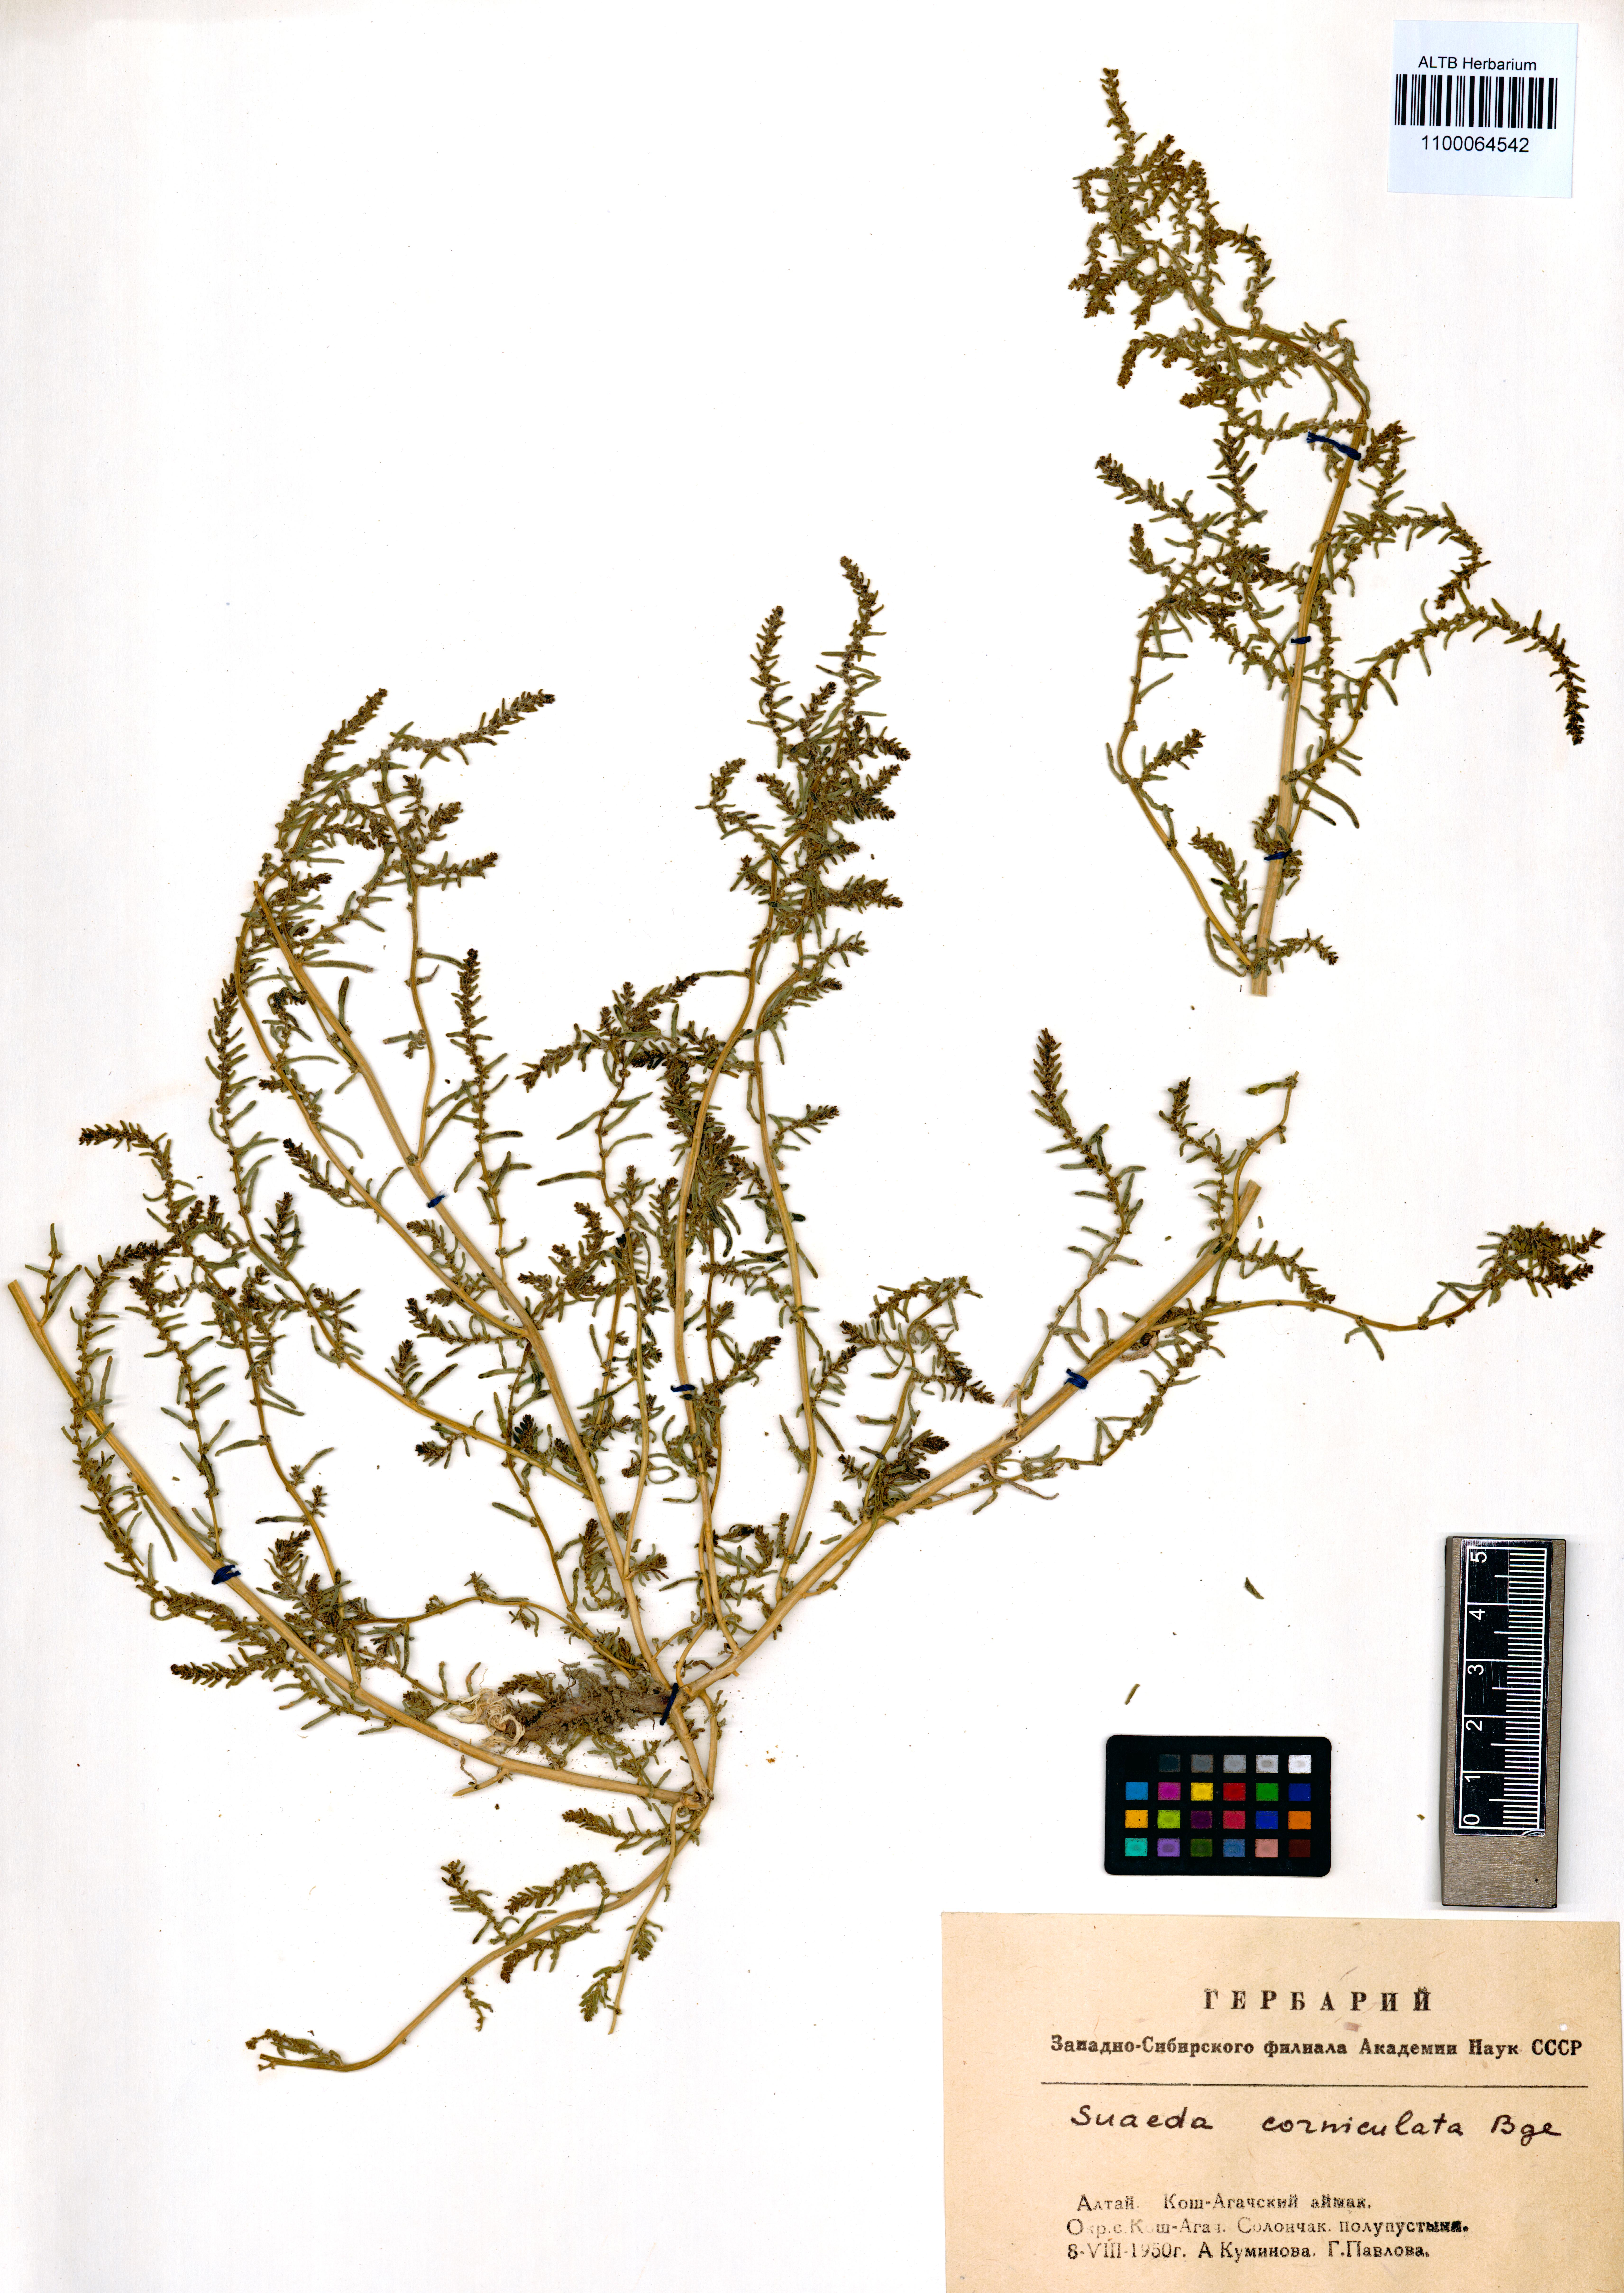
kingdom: Plantae
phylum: Tracheophyta
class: Magnoliopsida
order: Caryophyllales
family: Amaranthaceae
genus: Suaeda
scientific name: Suaeda corniculata
